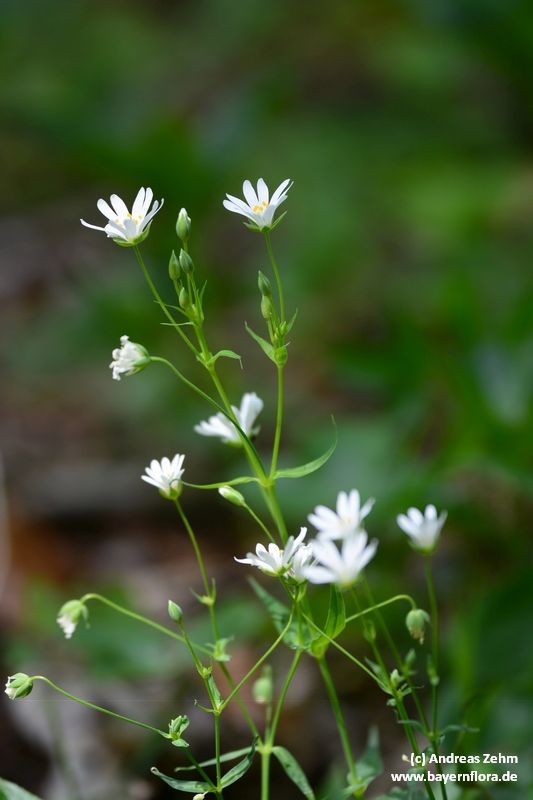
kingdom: Plantae
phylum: Tracheophyta
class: Magnoliopsida
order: Caryophyllales
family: Caryophyllaceae
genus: Rabelera
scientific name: Rabelera holostea
